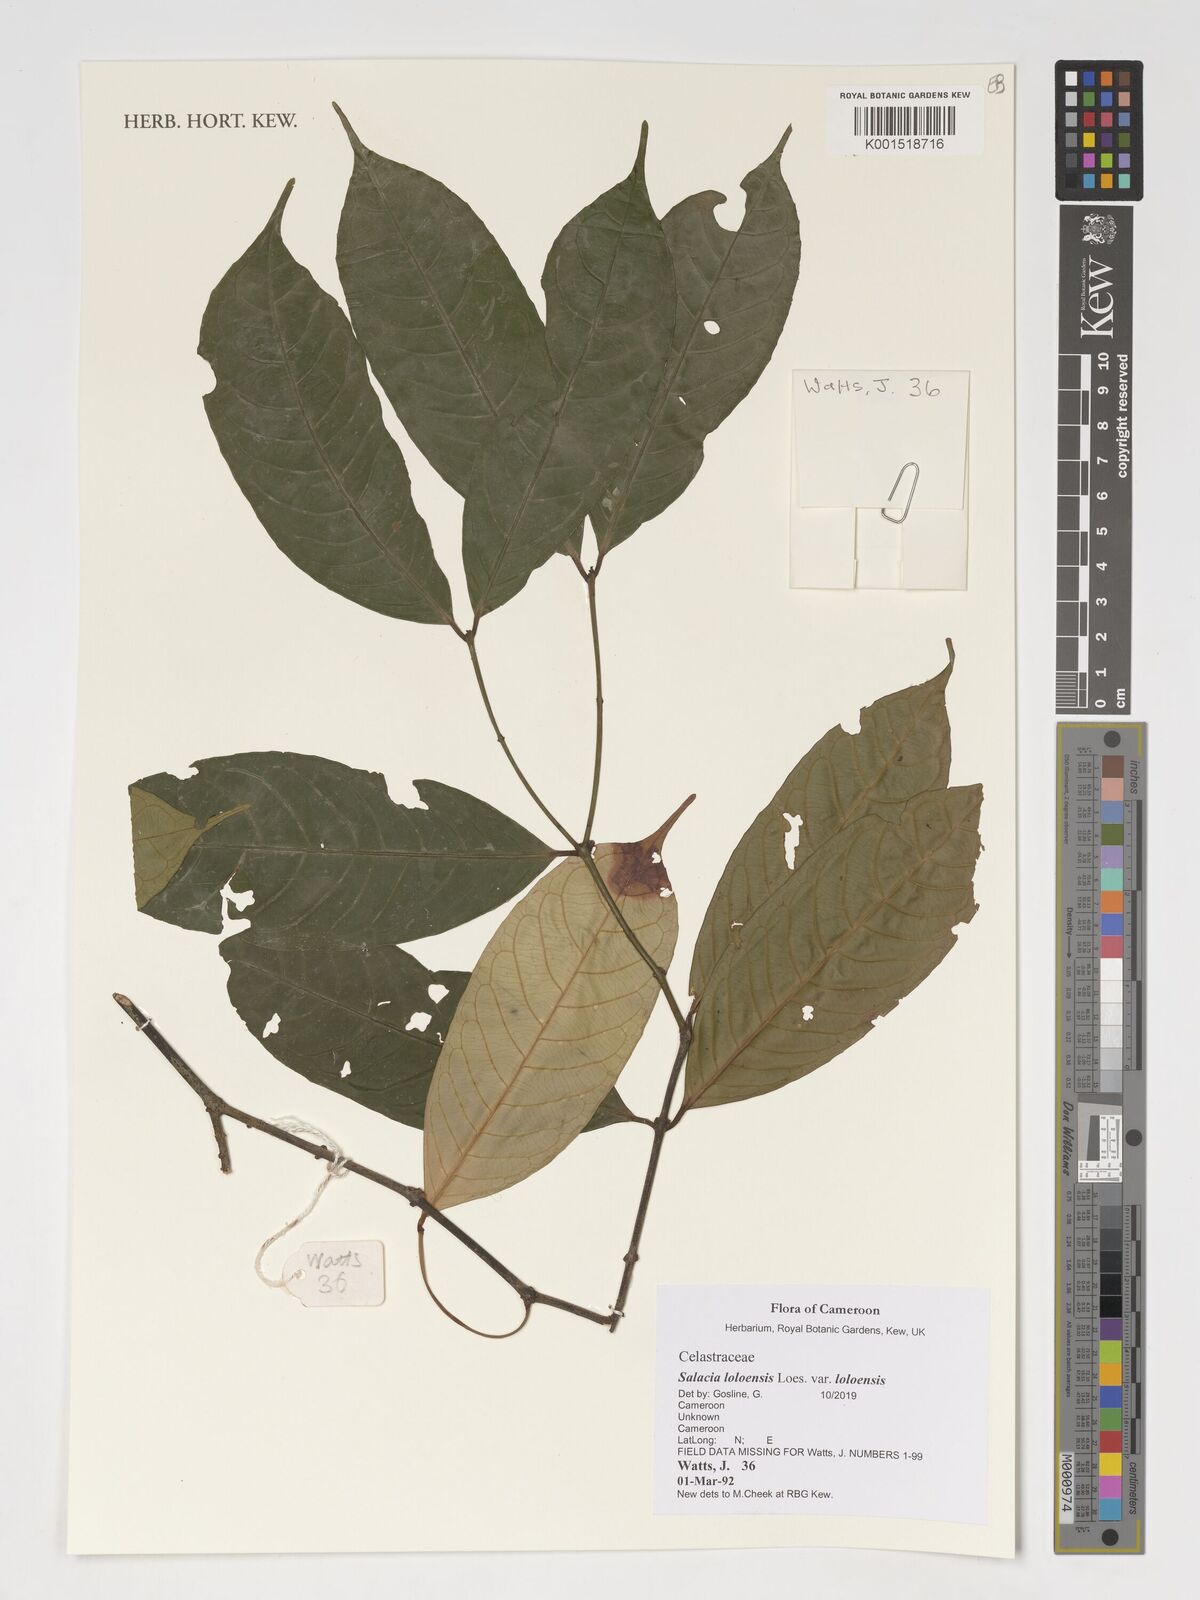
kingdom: Plantae
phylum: Tracheophyta
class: Magnoliopsida
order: Celastrales
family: Celastraceae
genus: Salacia
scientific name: Salacia loloensis
